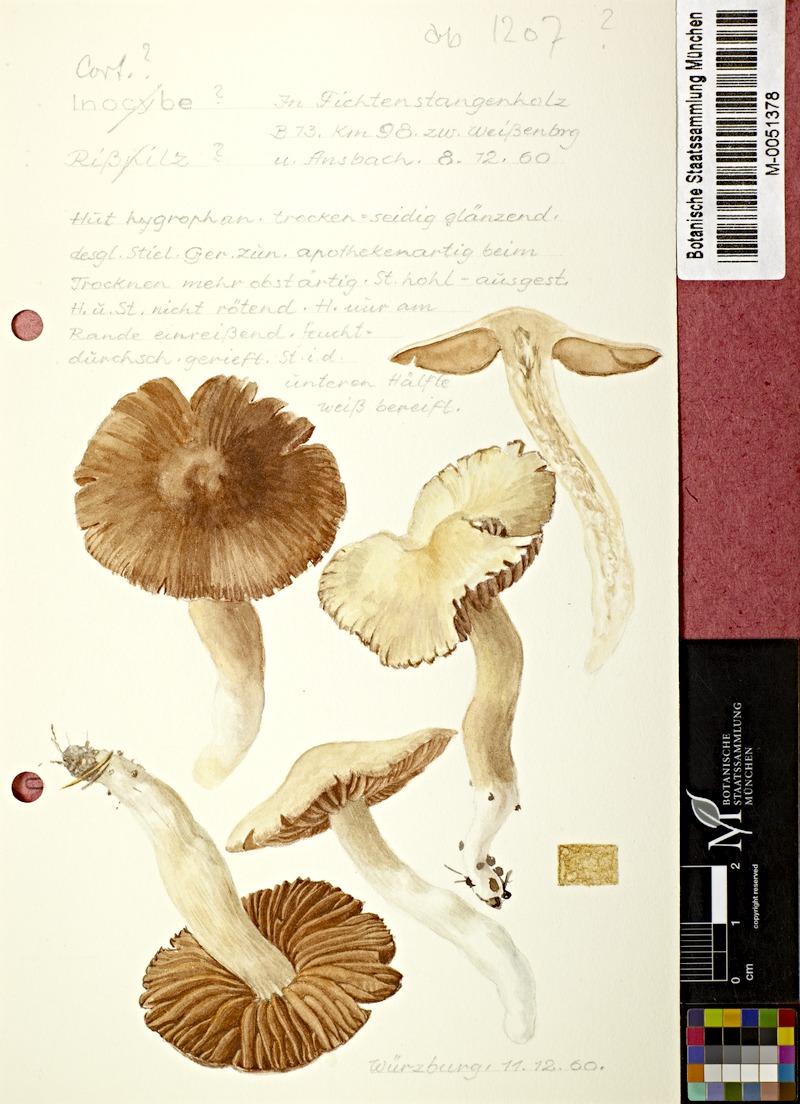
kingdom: Fungi
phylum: Basidiomycota
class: Agaricomycetes
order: Agaricales
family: Inocybaceae
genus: Inocybe
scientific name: Inocybe
